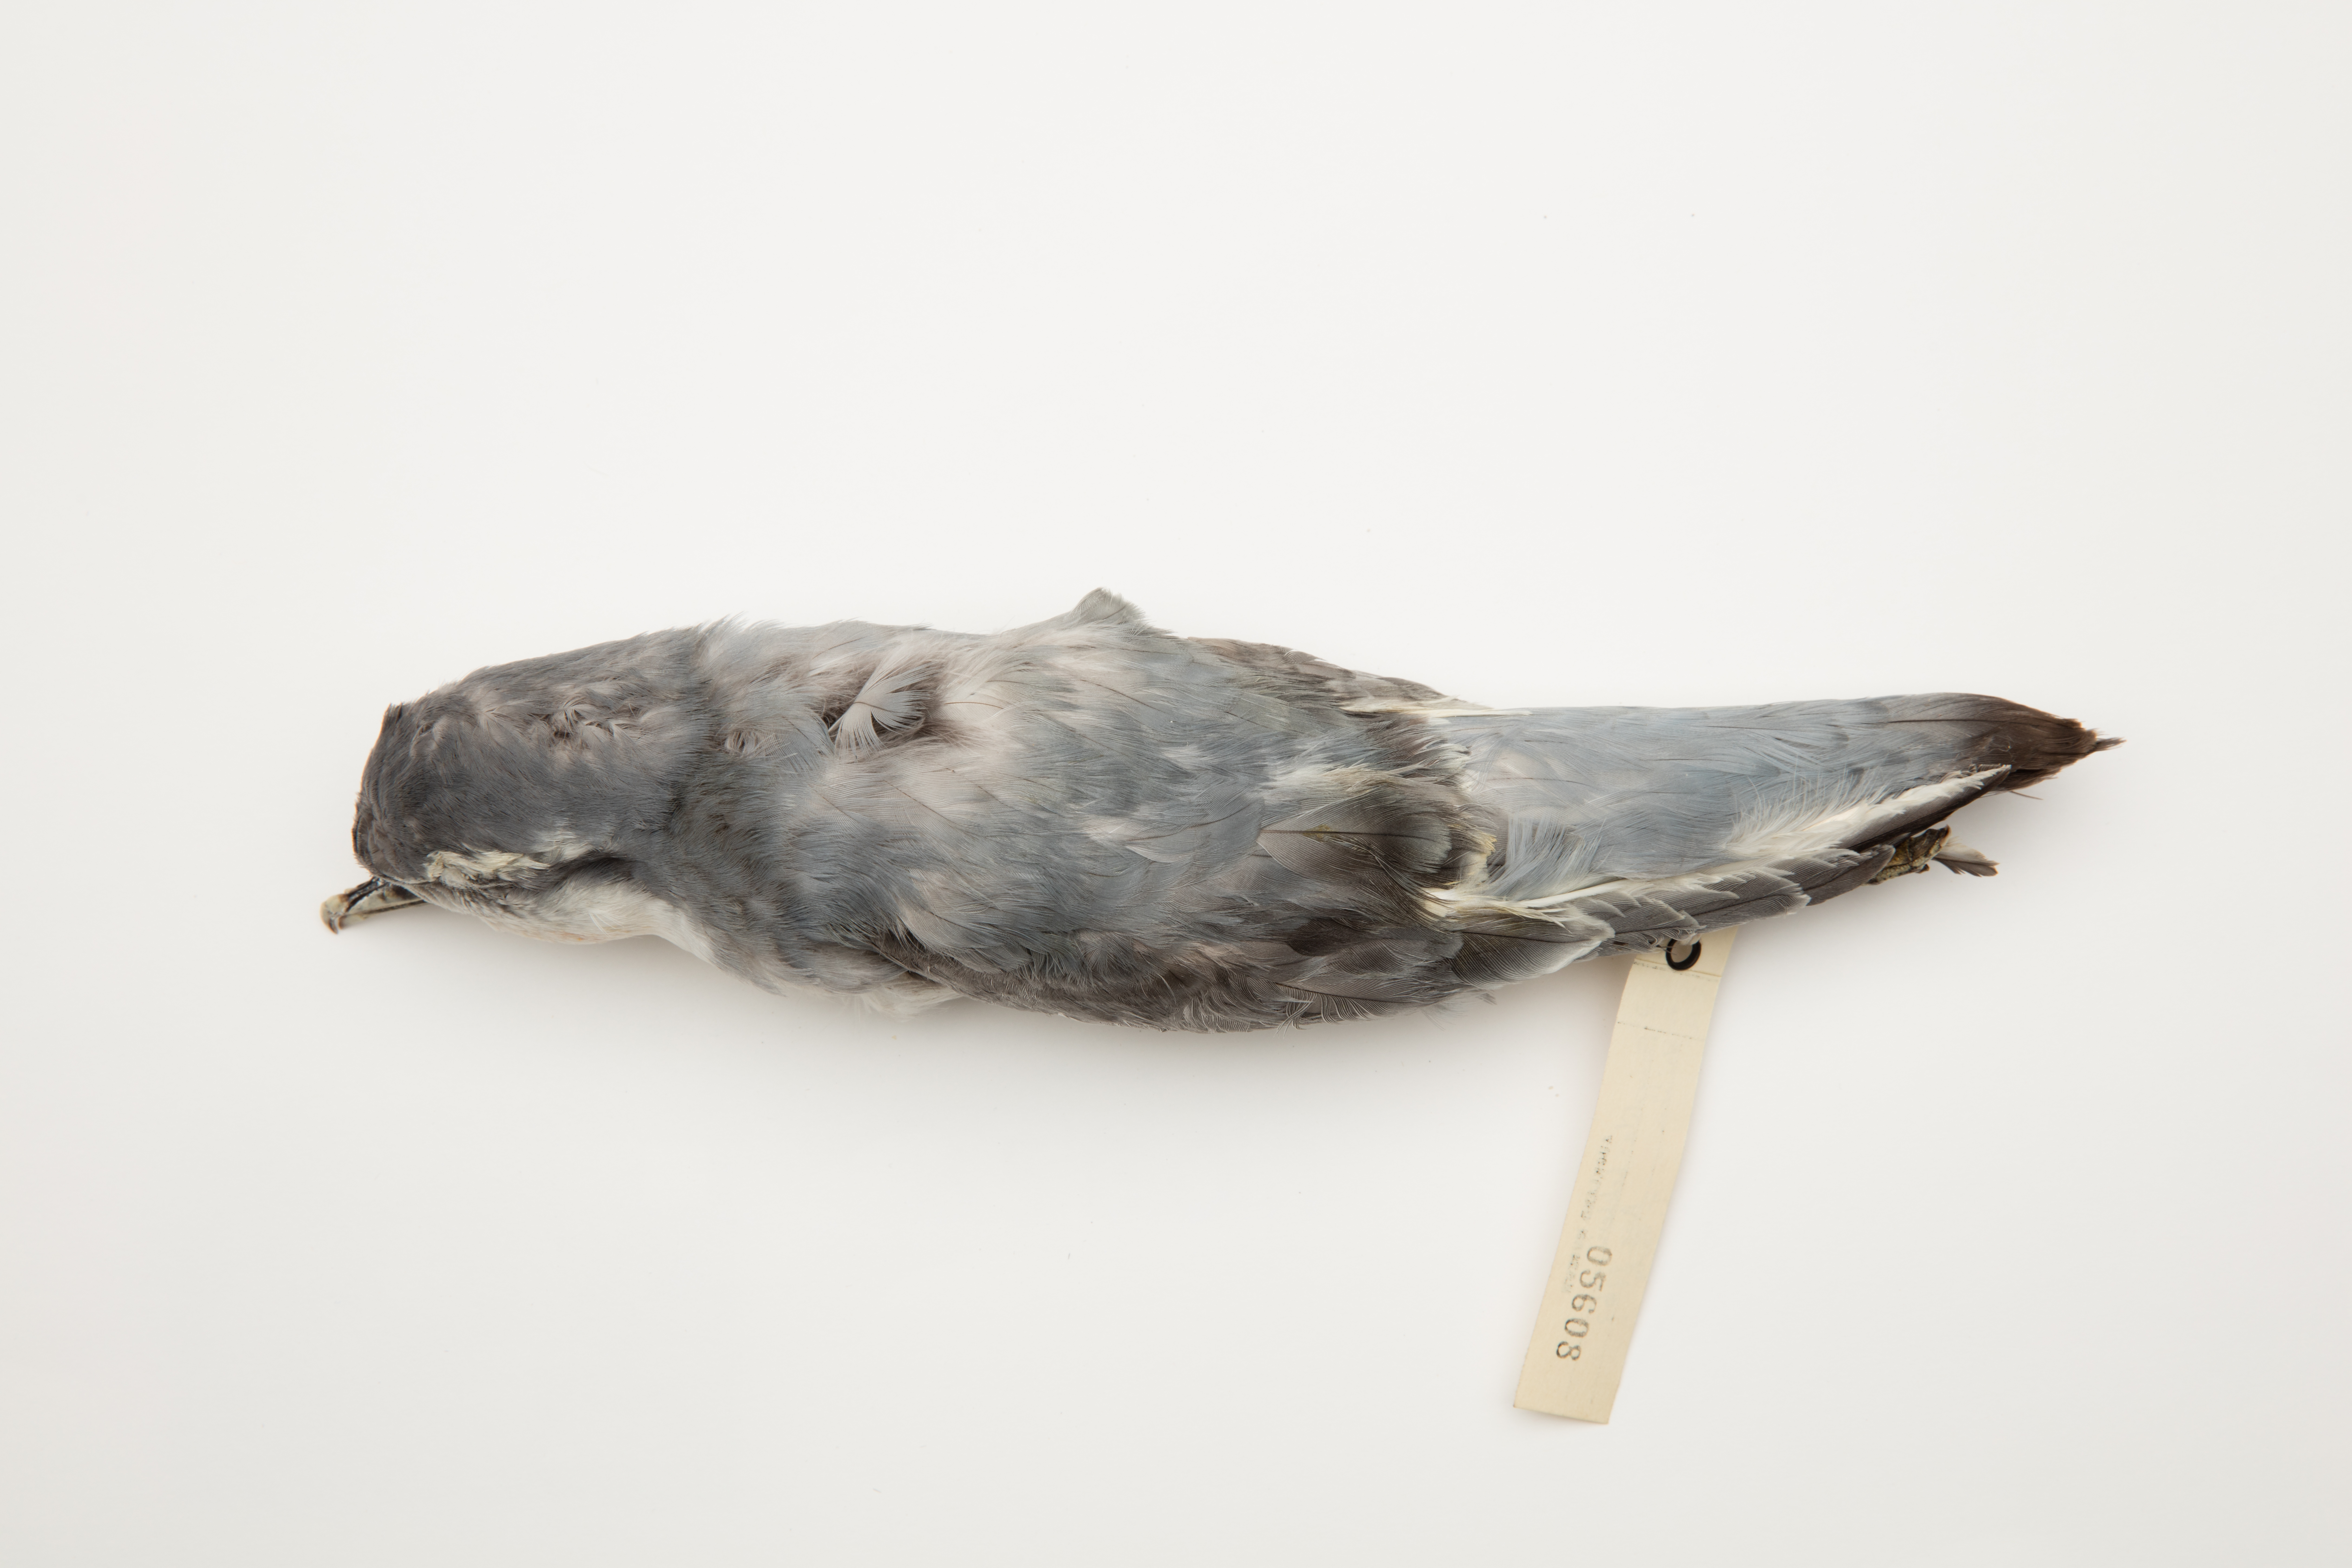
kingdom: Animalia
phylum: Chordata
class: Aves
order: Procellariiformes
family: Procellariidae
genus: Pachyptila
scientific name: Pachyptila belcheri
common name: Slender-billed prion
